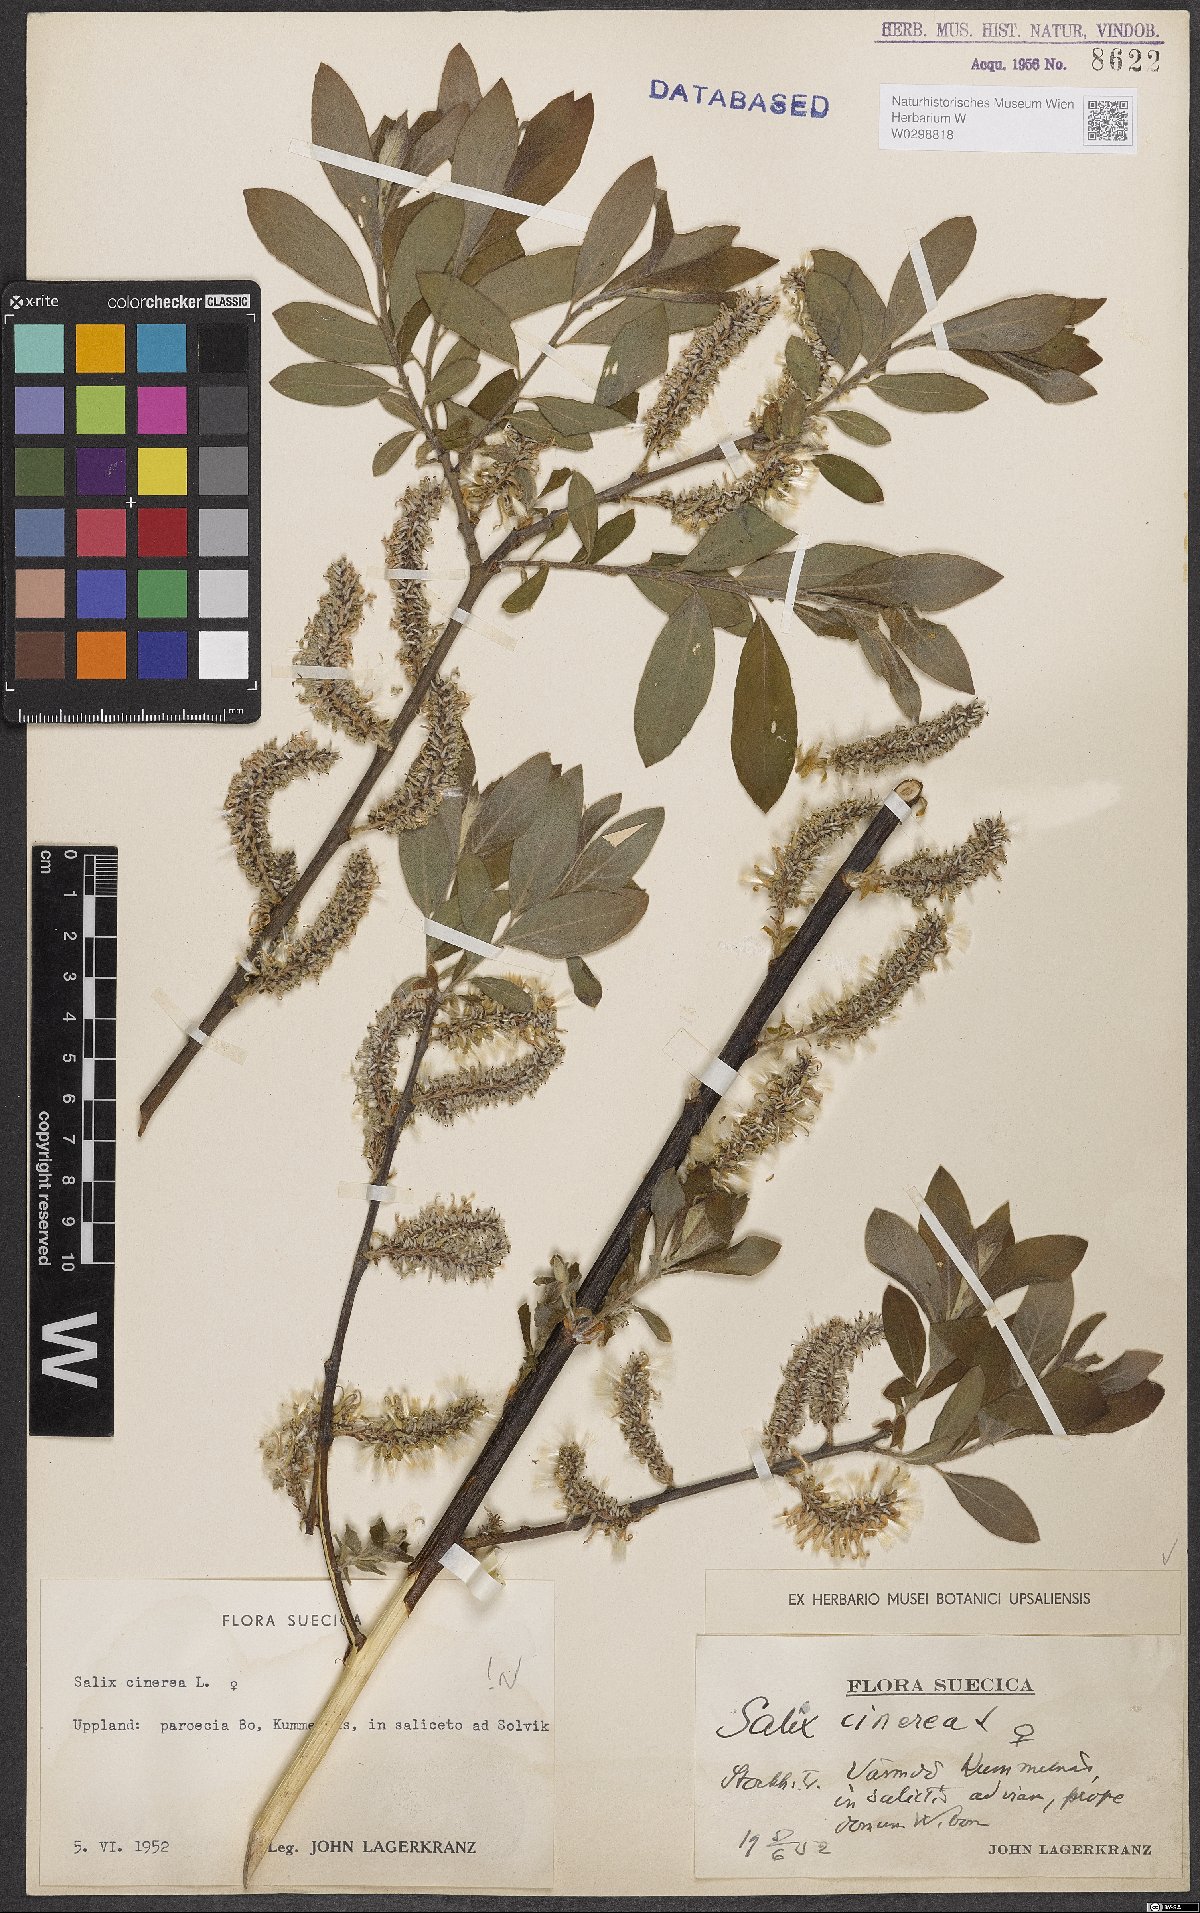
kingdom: Plantae
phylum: Tracheophyta
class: Magnoliopsida
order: Malpighiales
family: Salicaceae
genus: Salix
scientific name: Salix cinerea
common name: Common sallow
